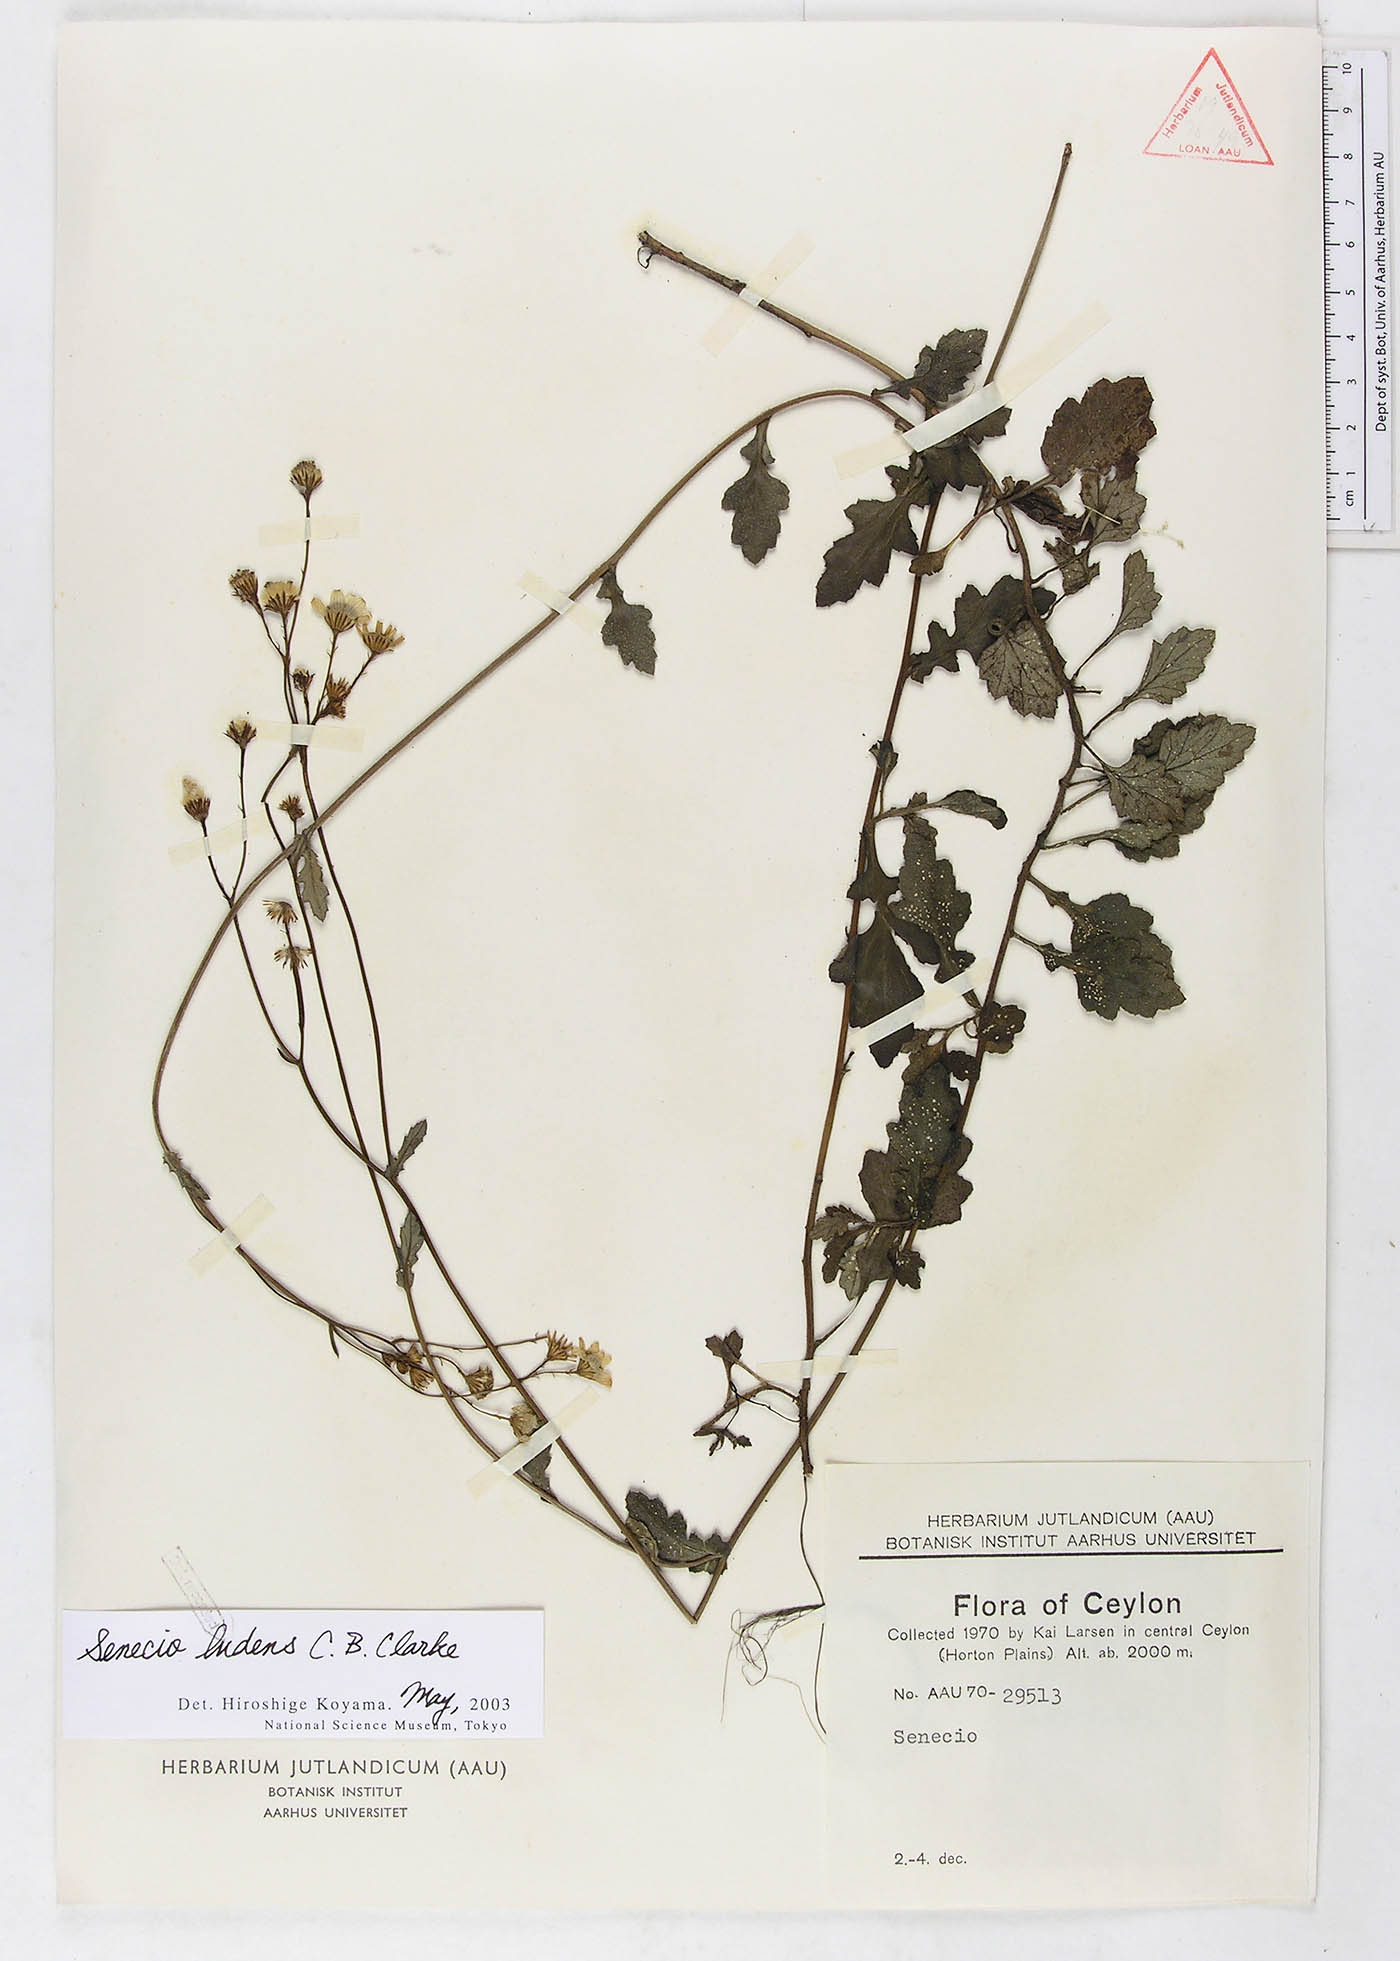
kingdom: Plantae
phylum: Tracheophyta
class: Magnoliopsida
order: Asterales
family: Asteraceae
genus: Senecio
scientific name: Senecio ludens
